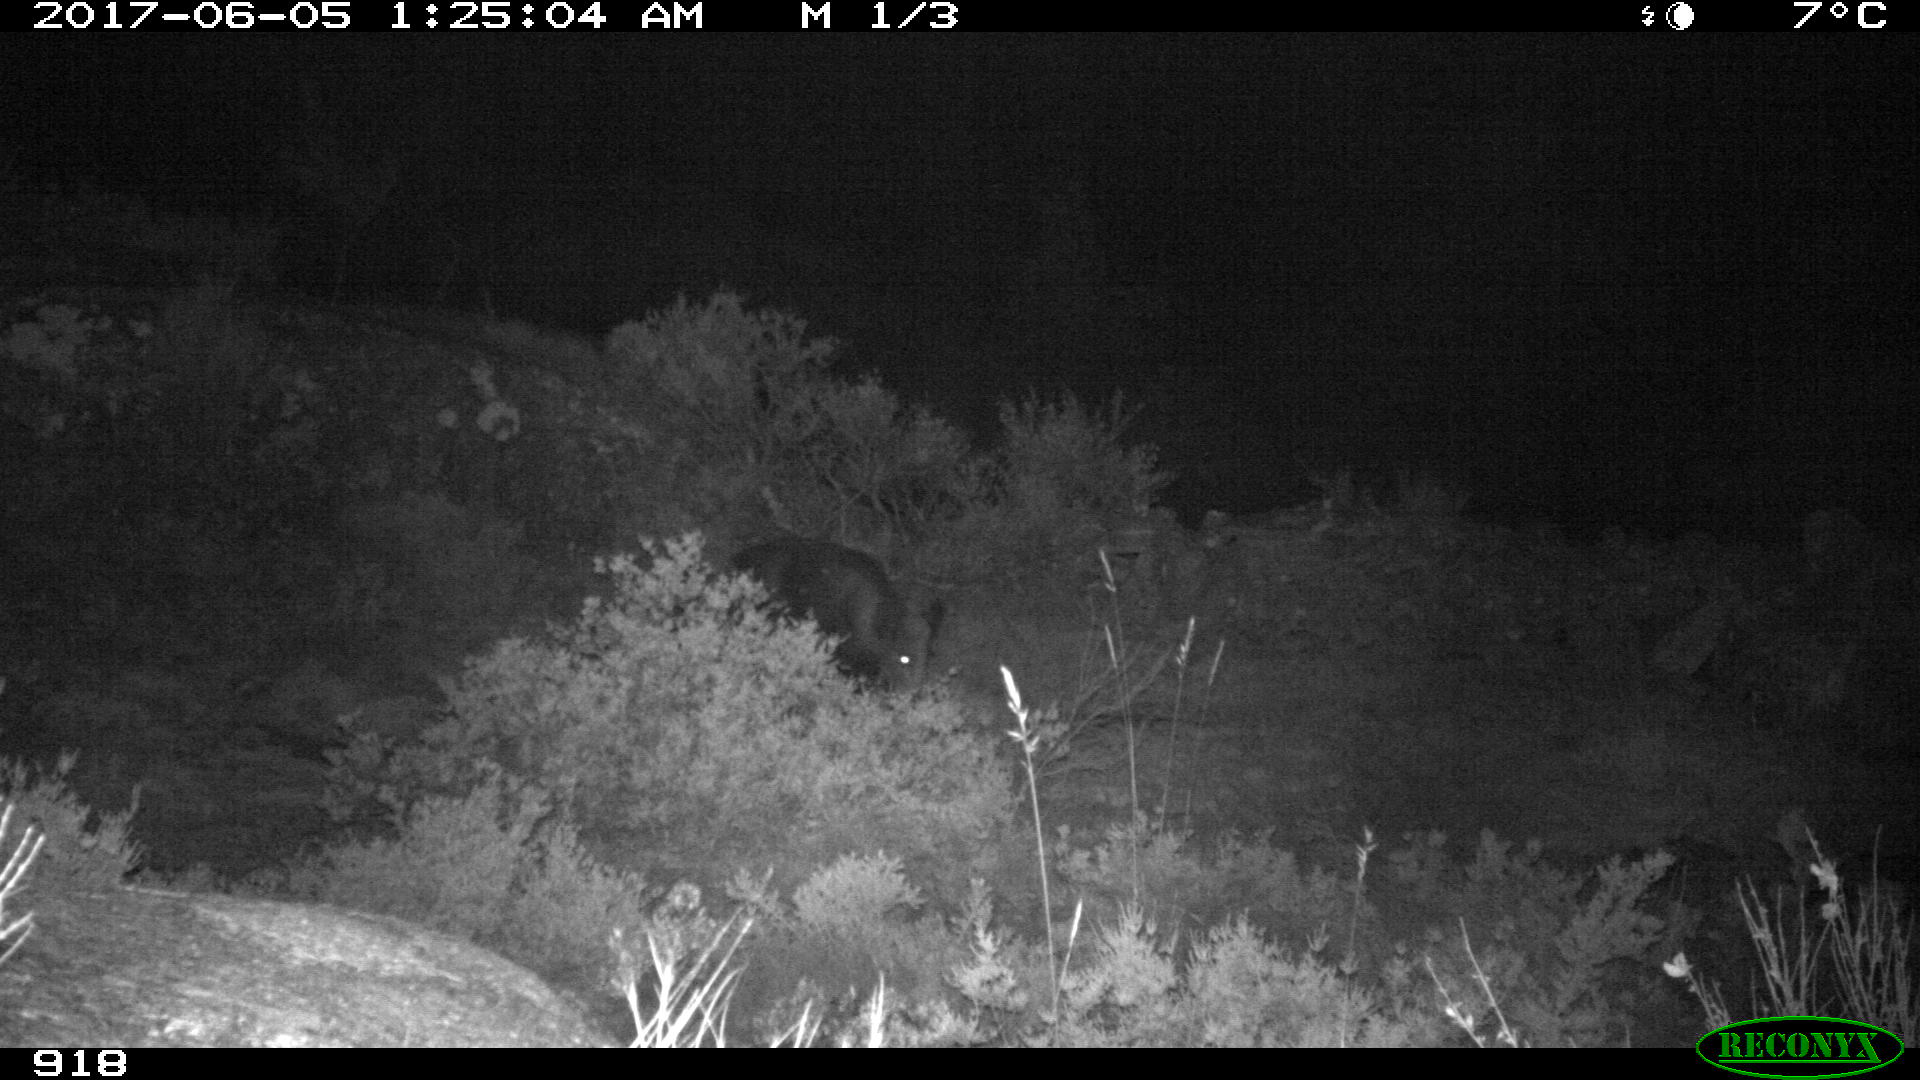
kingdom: Animalia
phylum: Chordata
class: Mammalia
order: Artiodactyla
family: Suidae
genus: Sus
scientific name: Sus scrofa
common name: Wild boar
